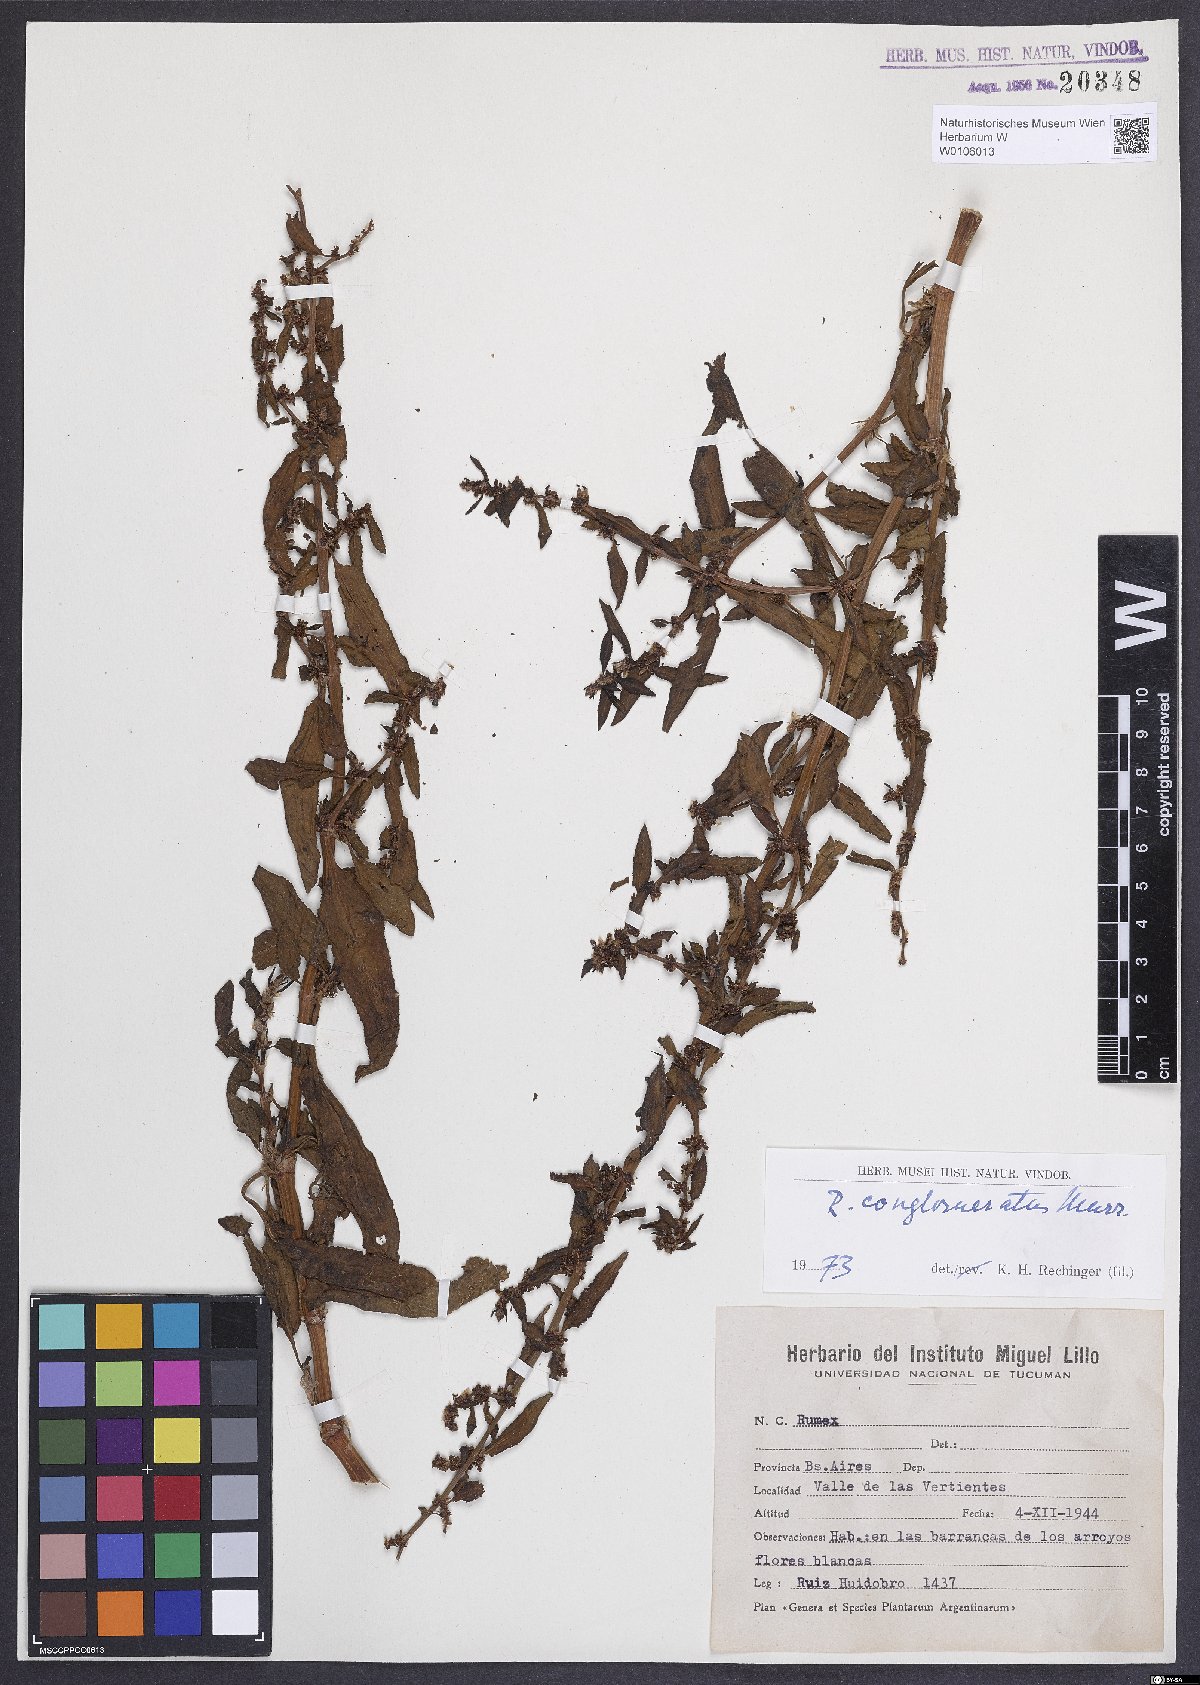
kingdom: Plantae
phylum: Tracheophyta
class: Magnoliopsida
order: Caryophyllales
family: Polygonaceae
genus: Rumex
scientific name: Rumex conglomeratus
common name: Clustered dock
